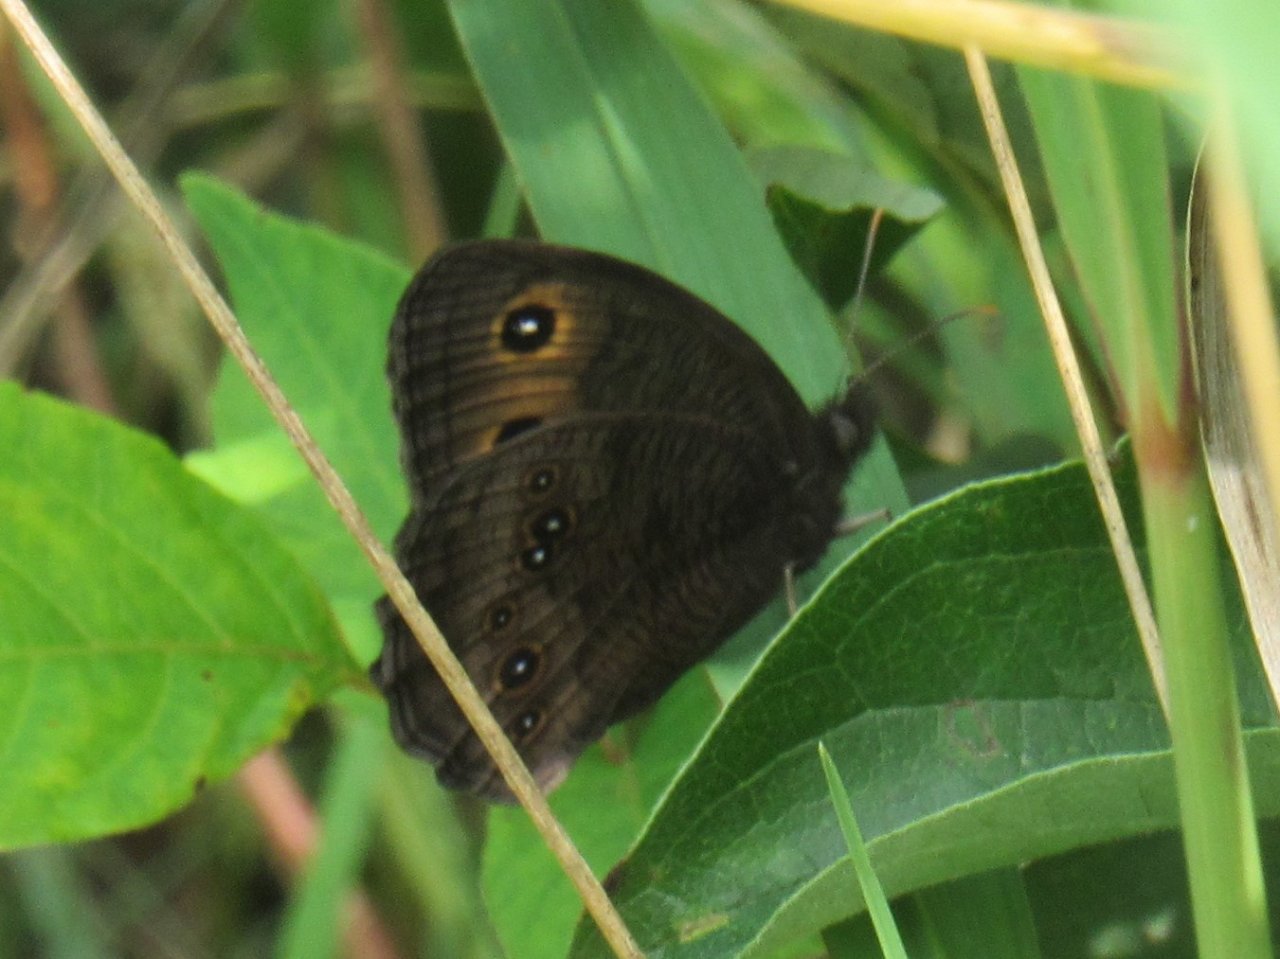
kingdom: Animalia
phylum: Arthropoda
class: Insecta
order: Lepidoptera
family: Nymphalidae
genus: Cercyonis
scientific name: Cercyonis pegala
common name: Common Wood-Nymph
